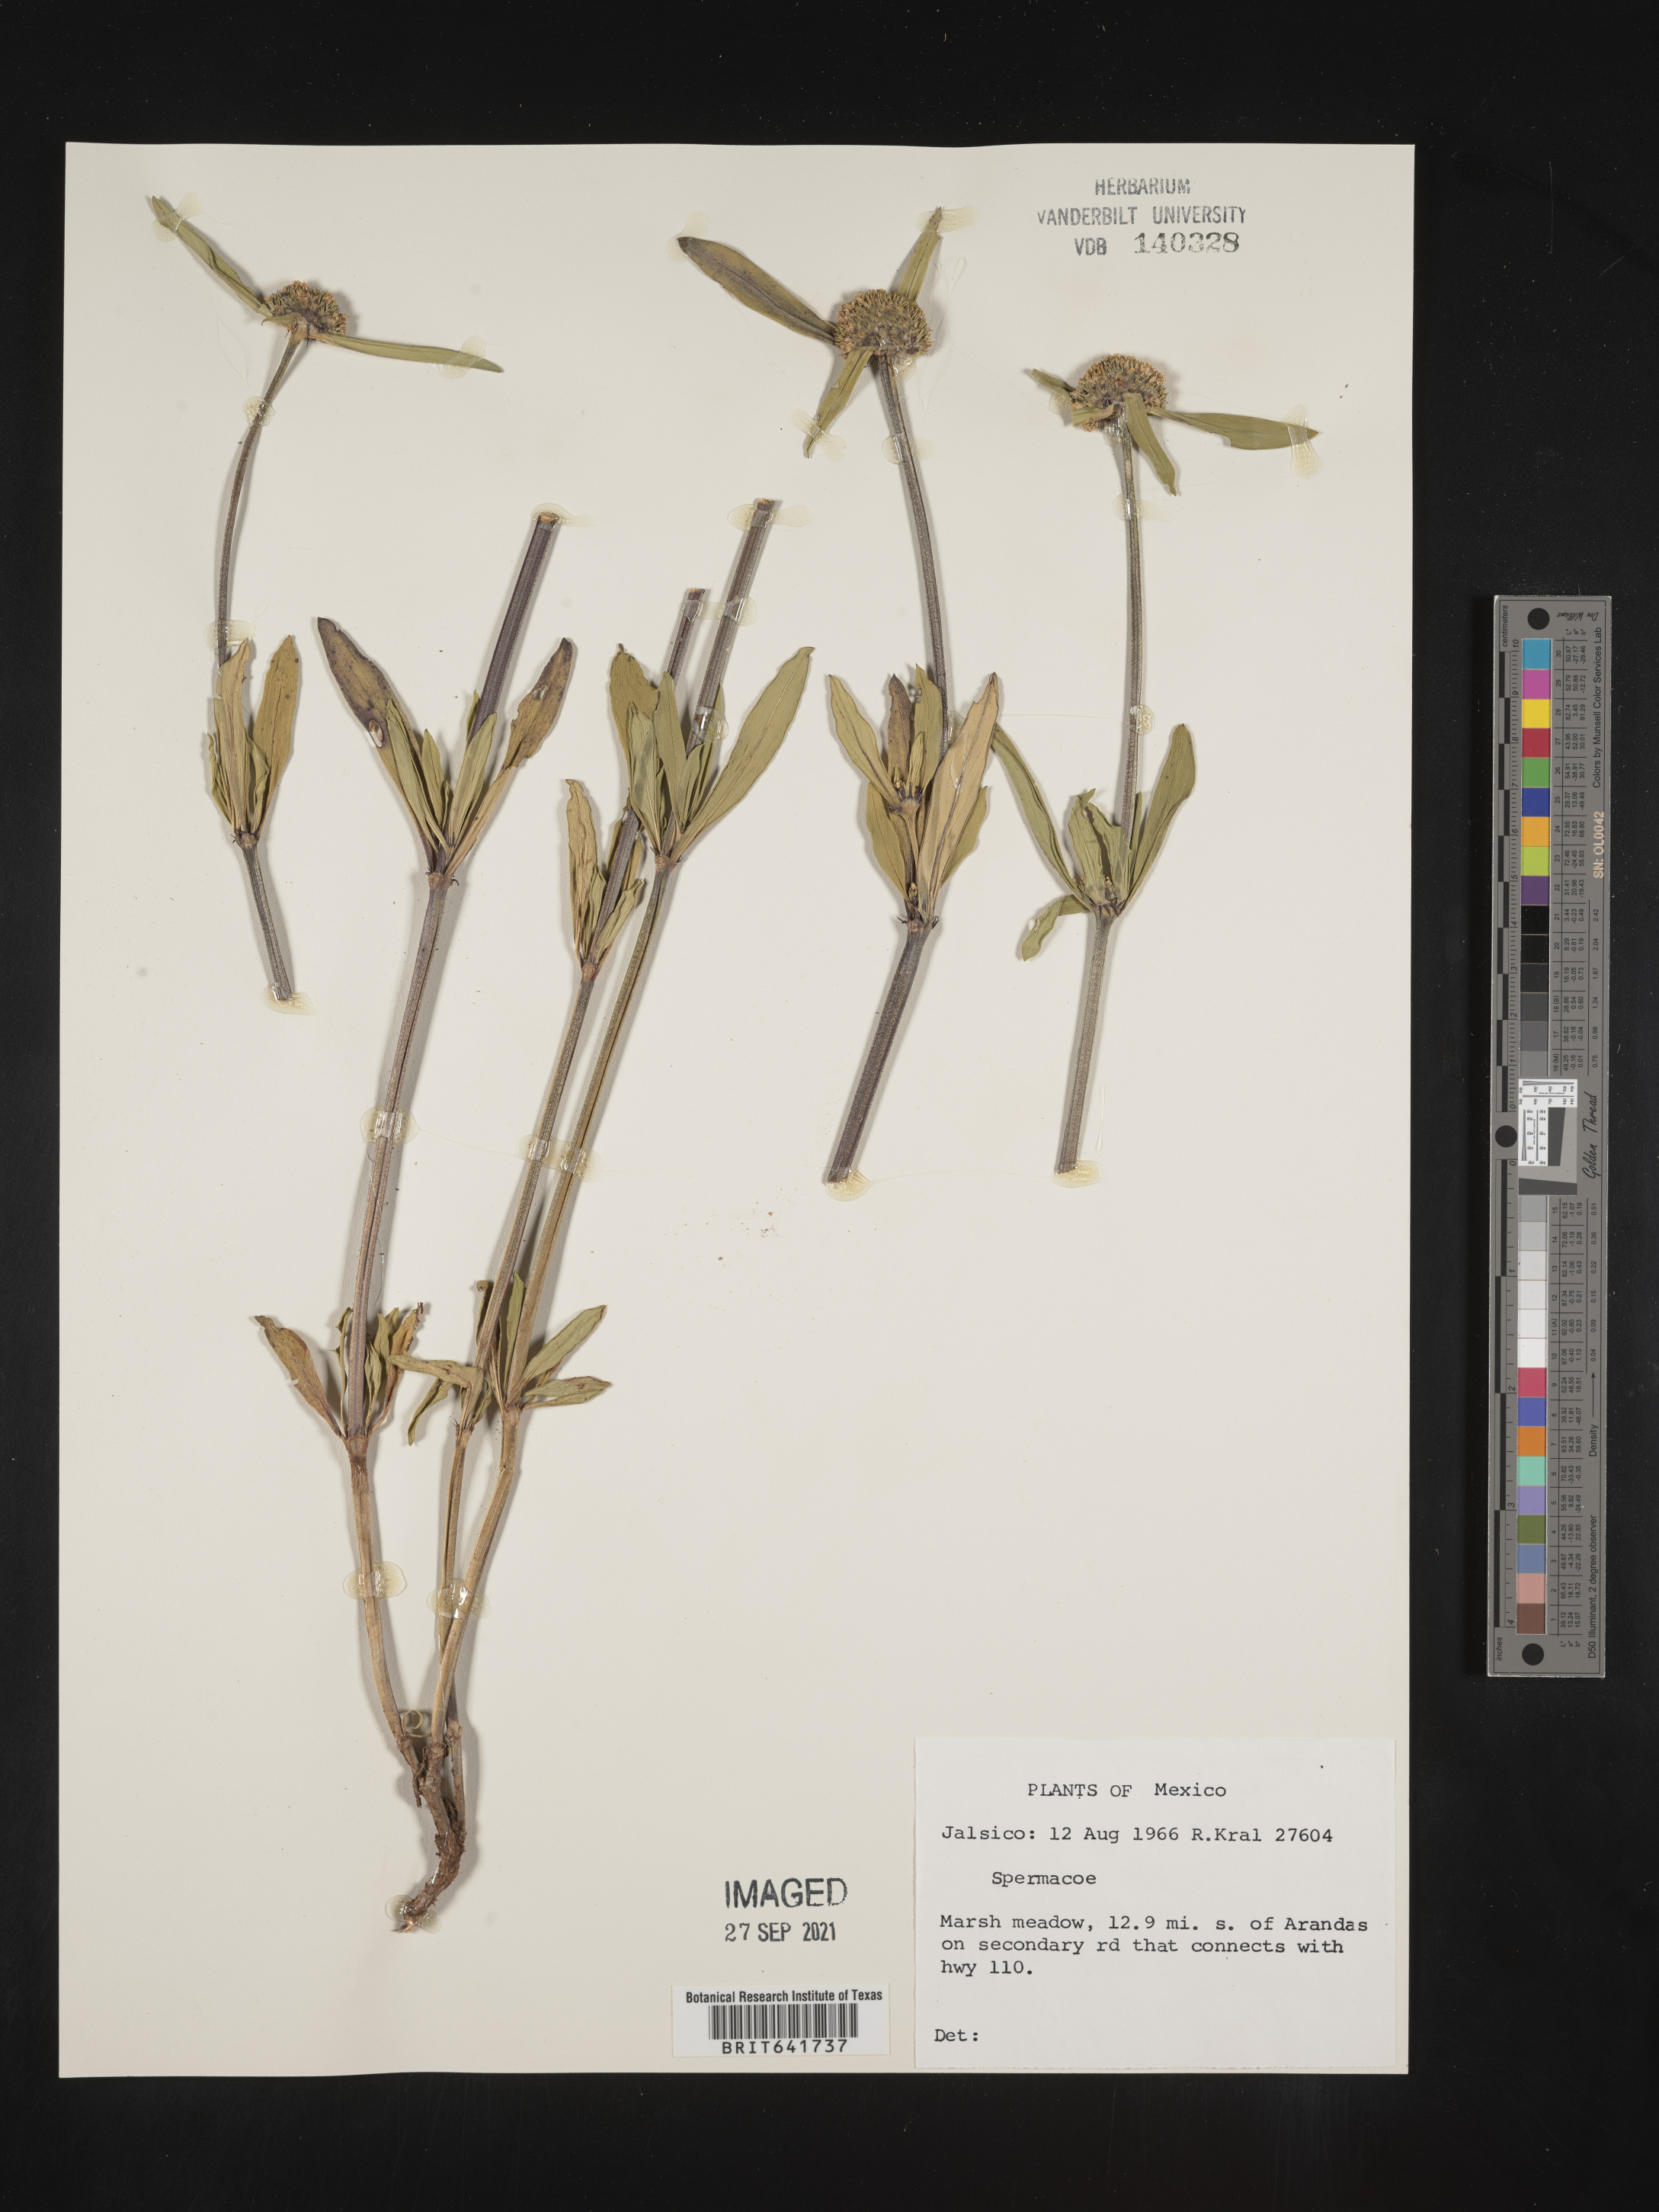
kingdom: Plantae
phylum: Tracheophyta
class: Magnoliopsida
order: Gentianales
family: Rubiaceae
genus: Spermacoce
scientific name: Spermacoce
